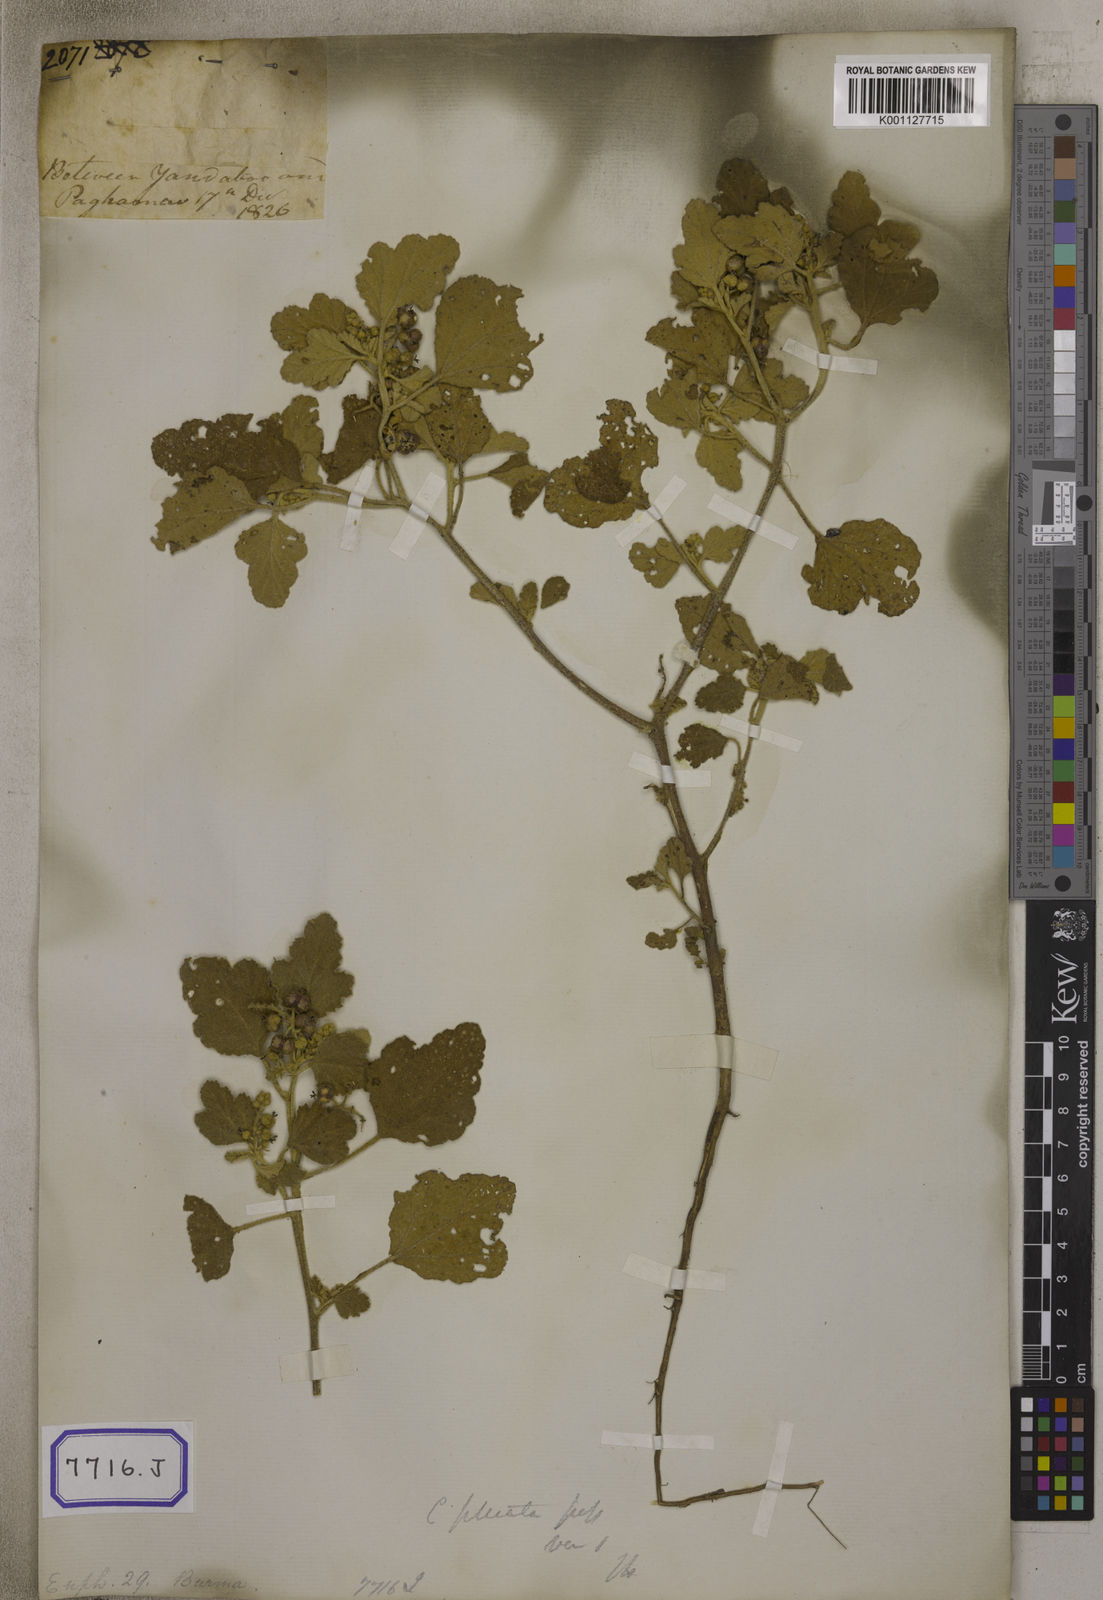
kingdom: Plantae
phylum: Tracheophyta
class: Magnoliopsida
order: Malpighiales
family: Euphorbiaceae
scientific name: Euphorbiaceae
